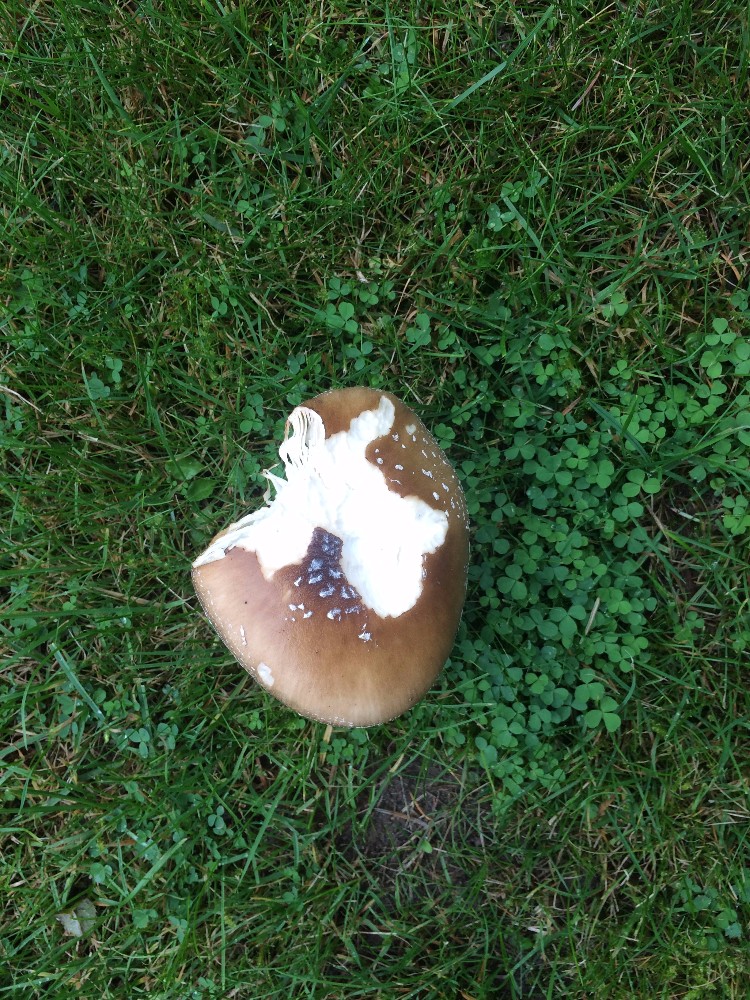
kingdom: Fungi
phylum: Basidiomycota
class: Agaricomycetes
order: Agaricales
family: Amanitaceae
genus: Amanita
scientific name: Amanita
